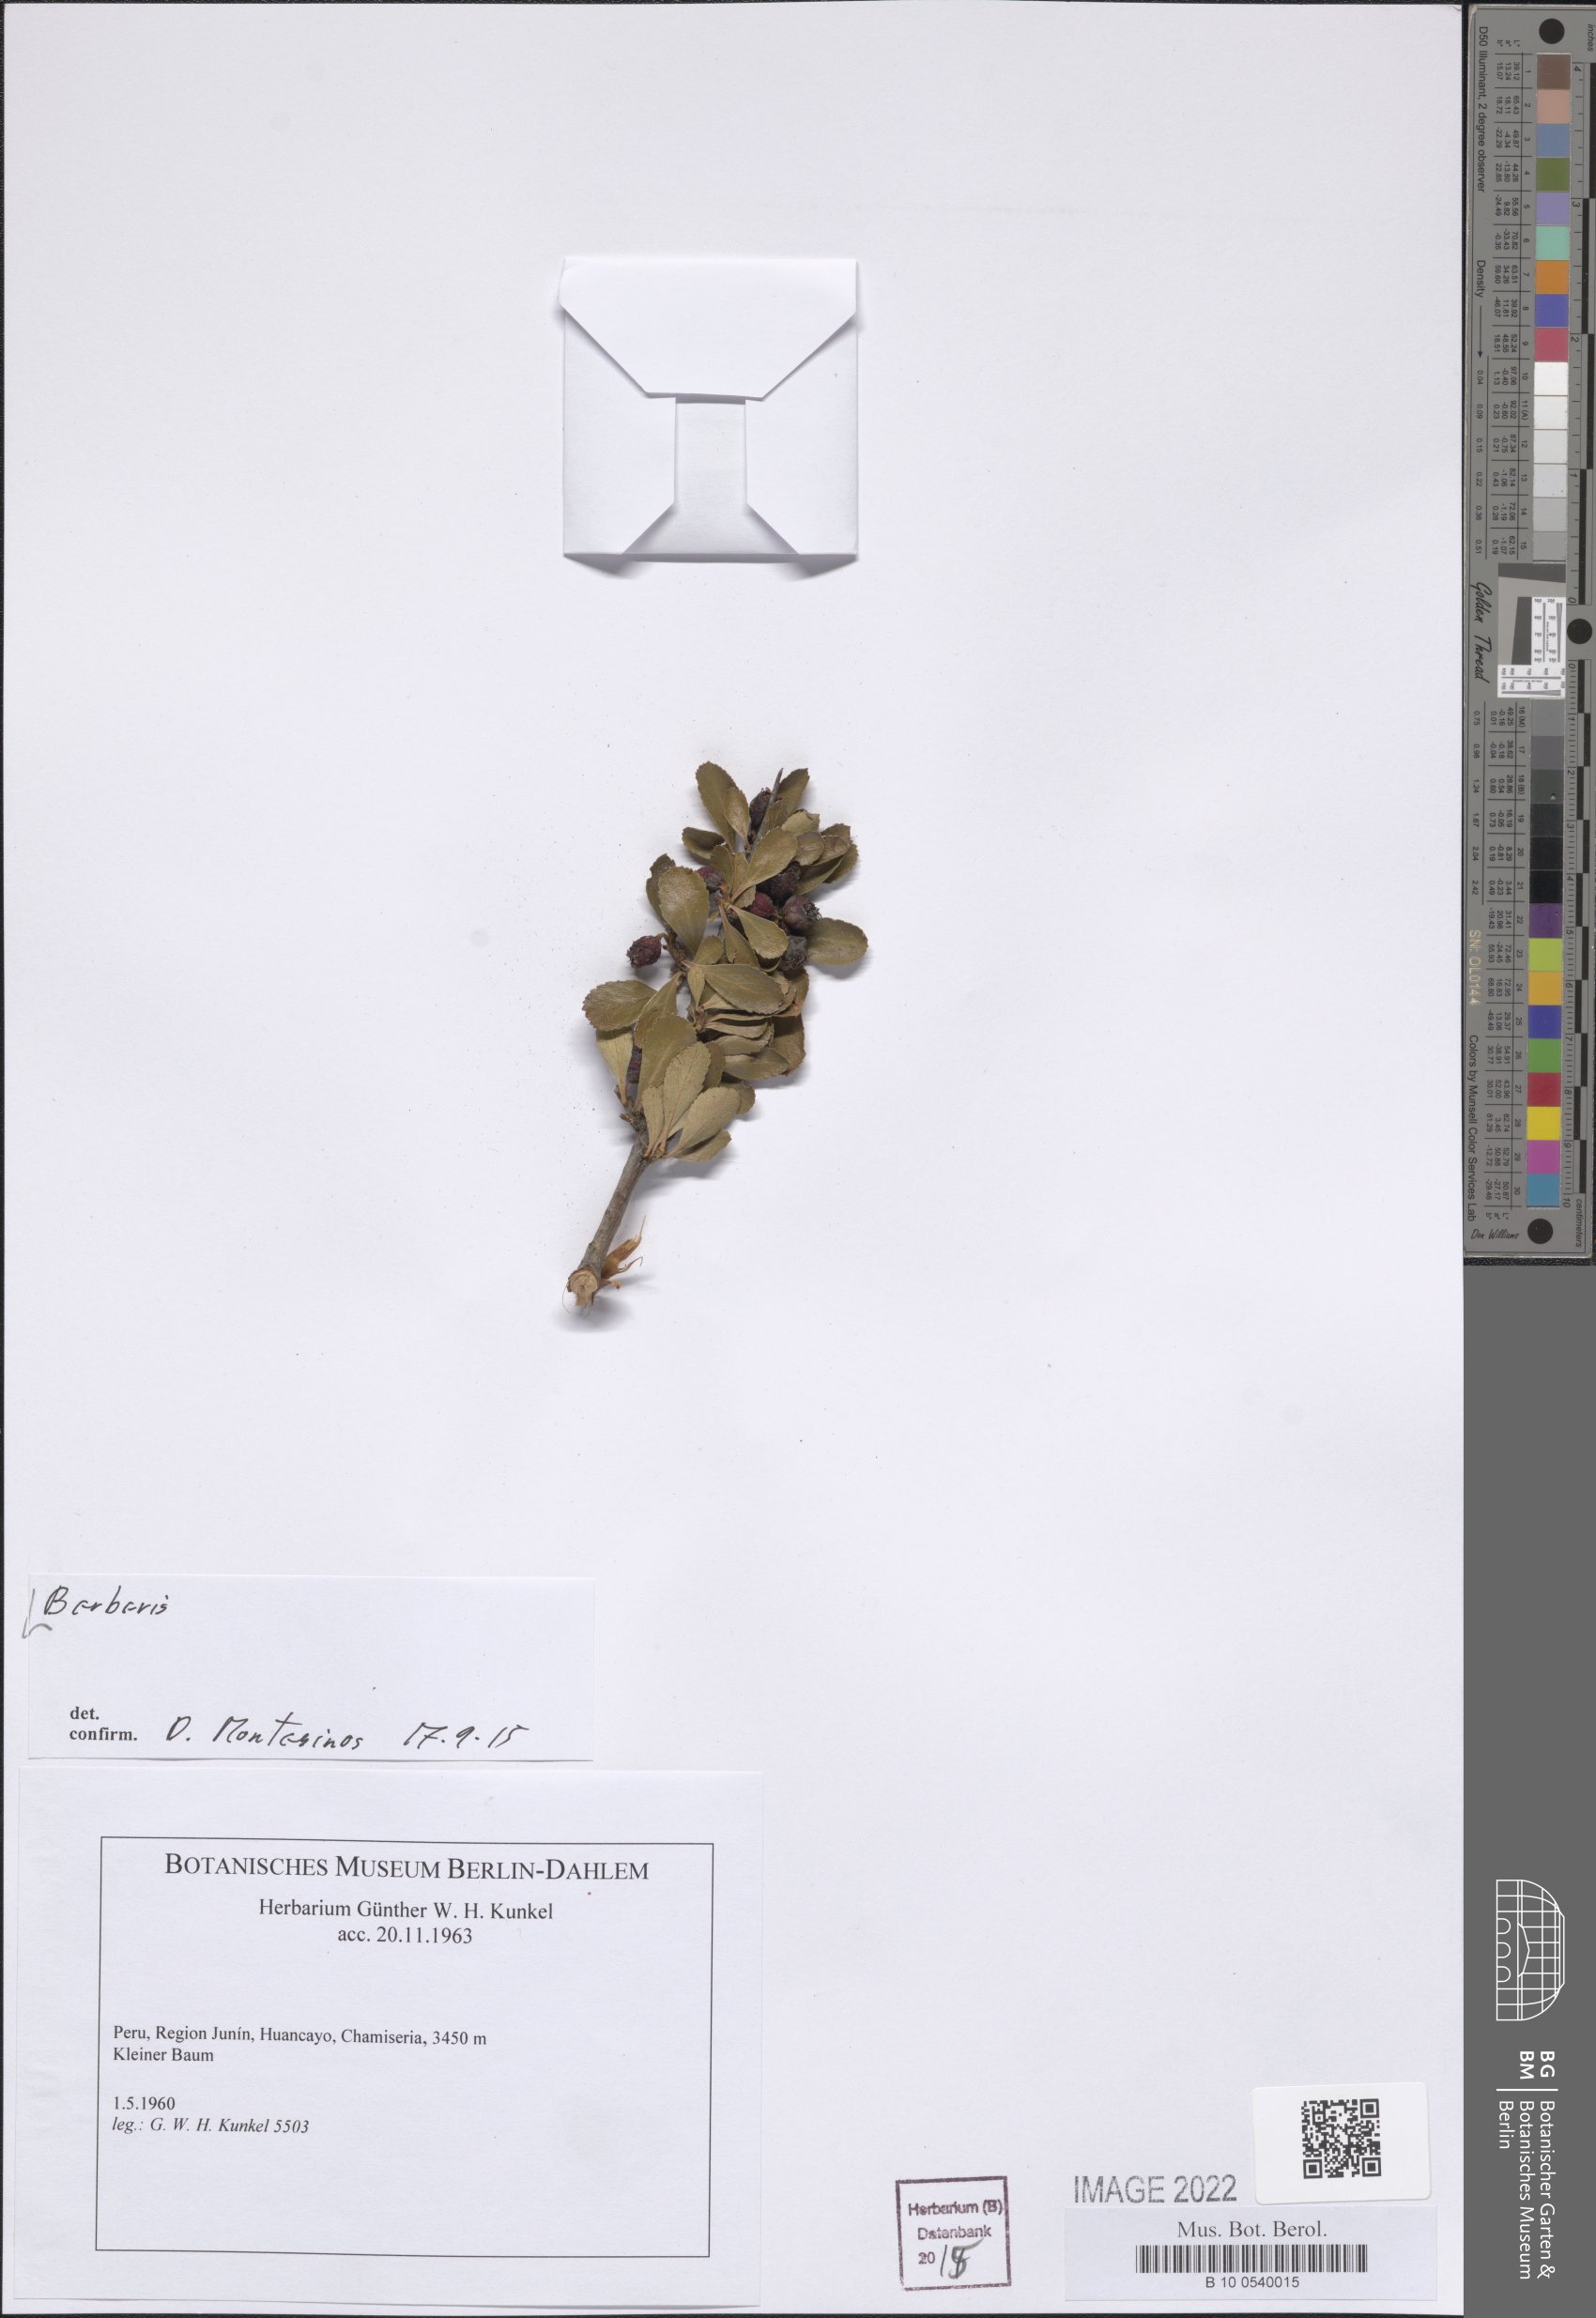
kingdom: Plantae
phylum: Tracheophyta
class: Magnoliopsida
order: Ranunculales
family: Berberidaceae
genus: Berberis
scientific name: Berberis
